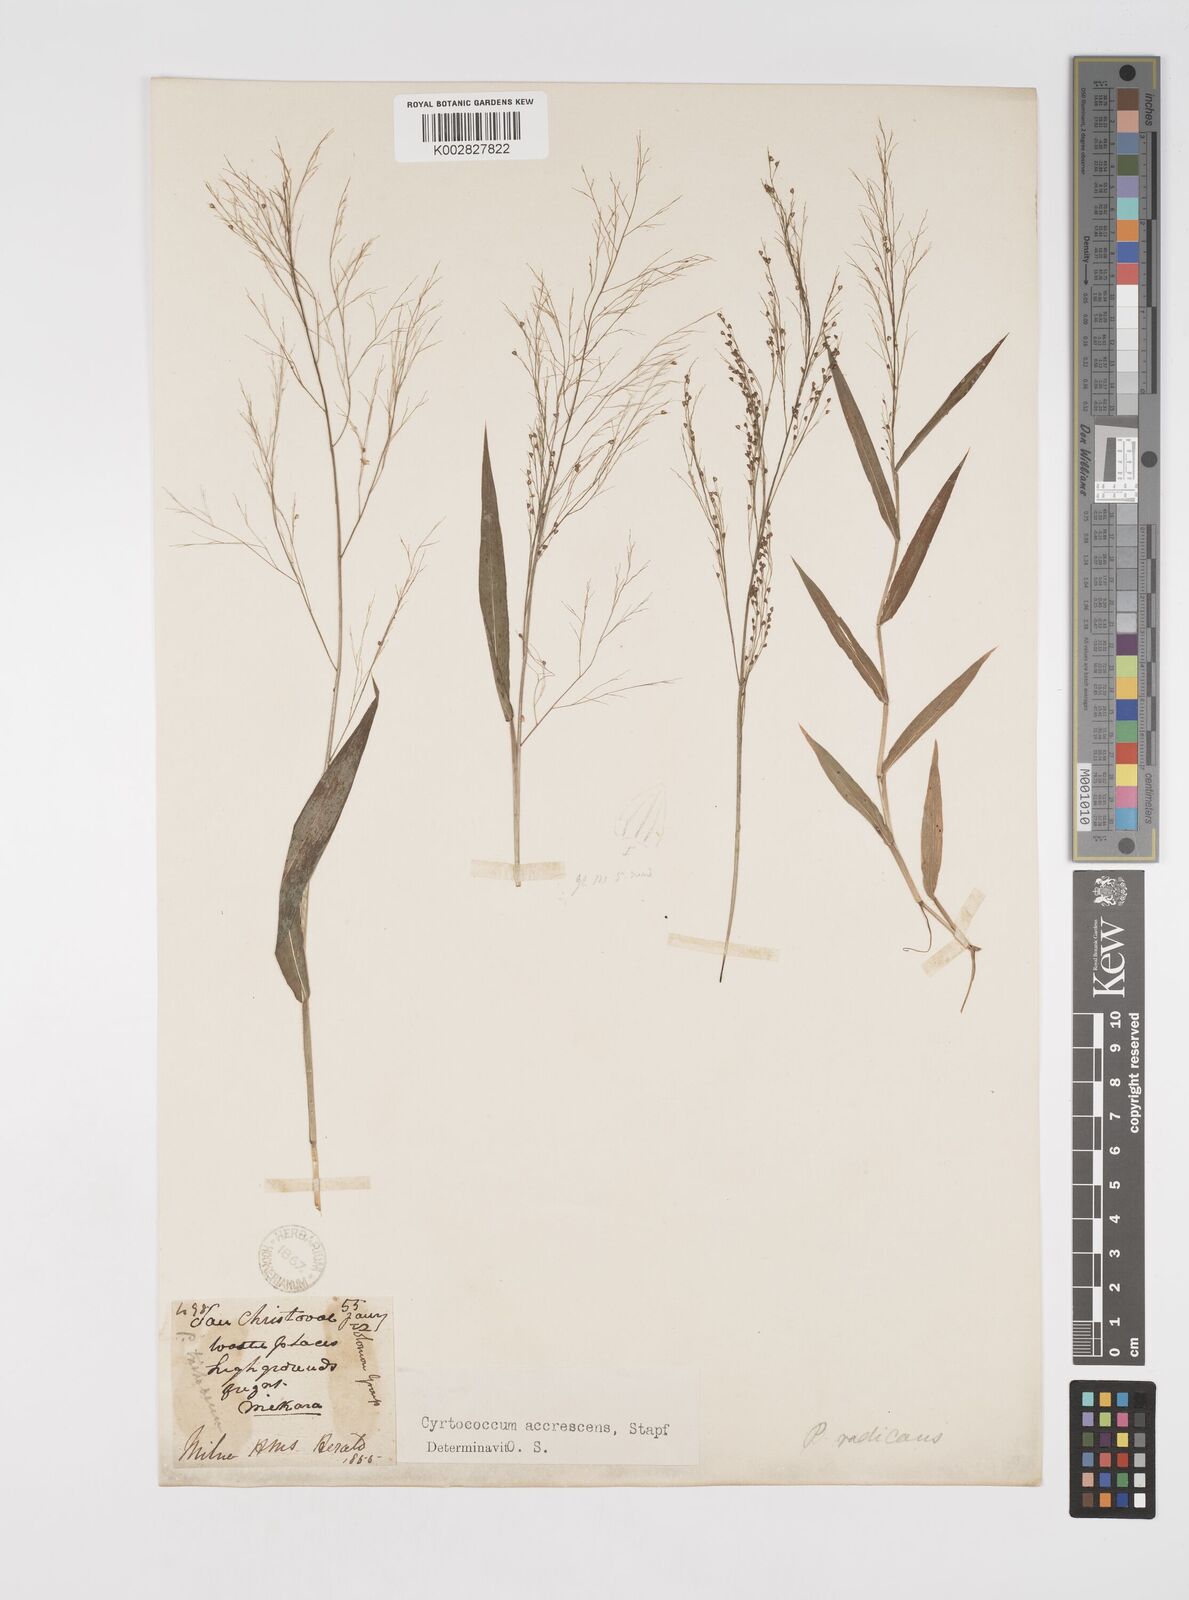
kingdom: Plantae
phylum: Tracheophyta
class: Liliopsida
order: Poales
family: Poaceae
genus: Cyrtococcum
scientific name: Cyrtococcum patens
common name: Broad-leaved bowgrass
